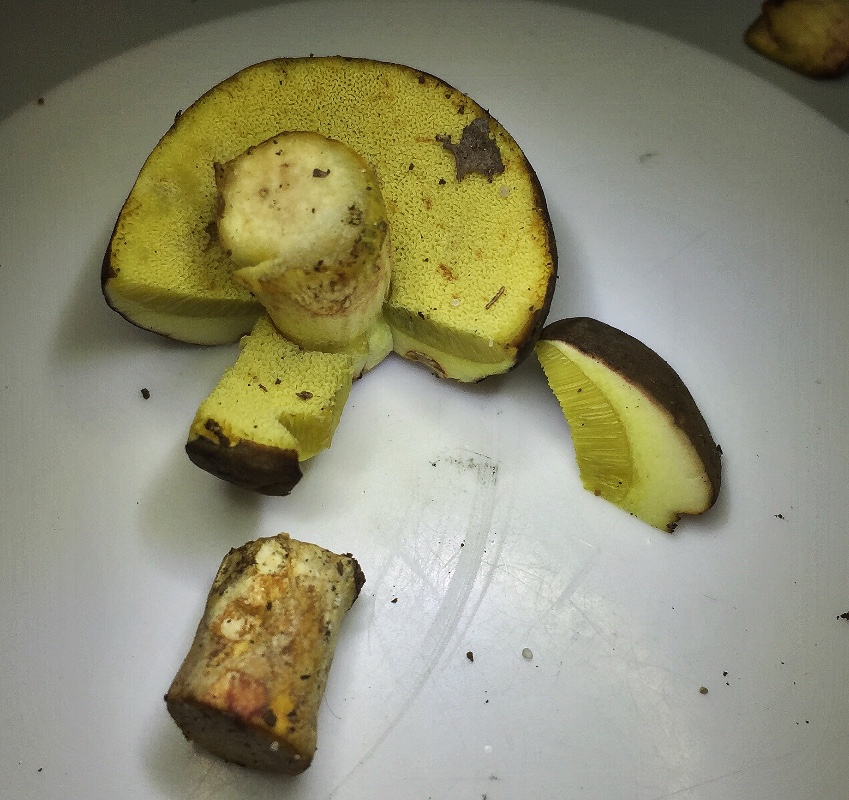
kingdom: Fungi
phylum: Basidiomycota
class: Agaricomycetes
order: Boletales
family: Boletaceae
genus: Xerocomellus
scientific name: Xerocomellus
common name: dværgrørhat
